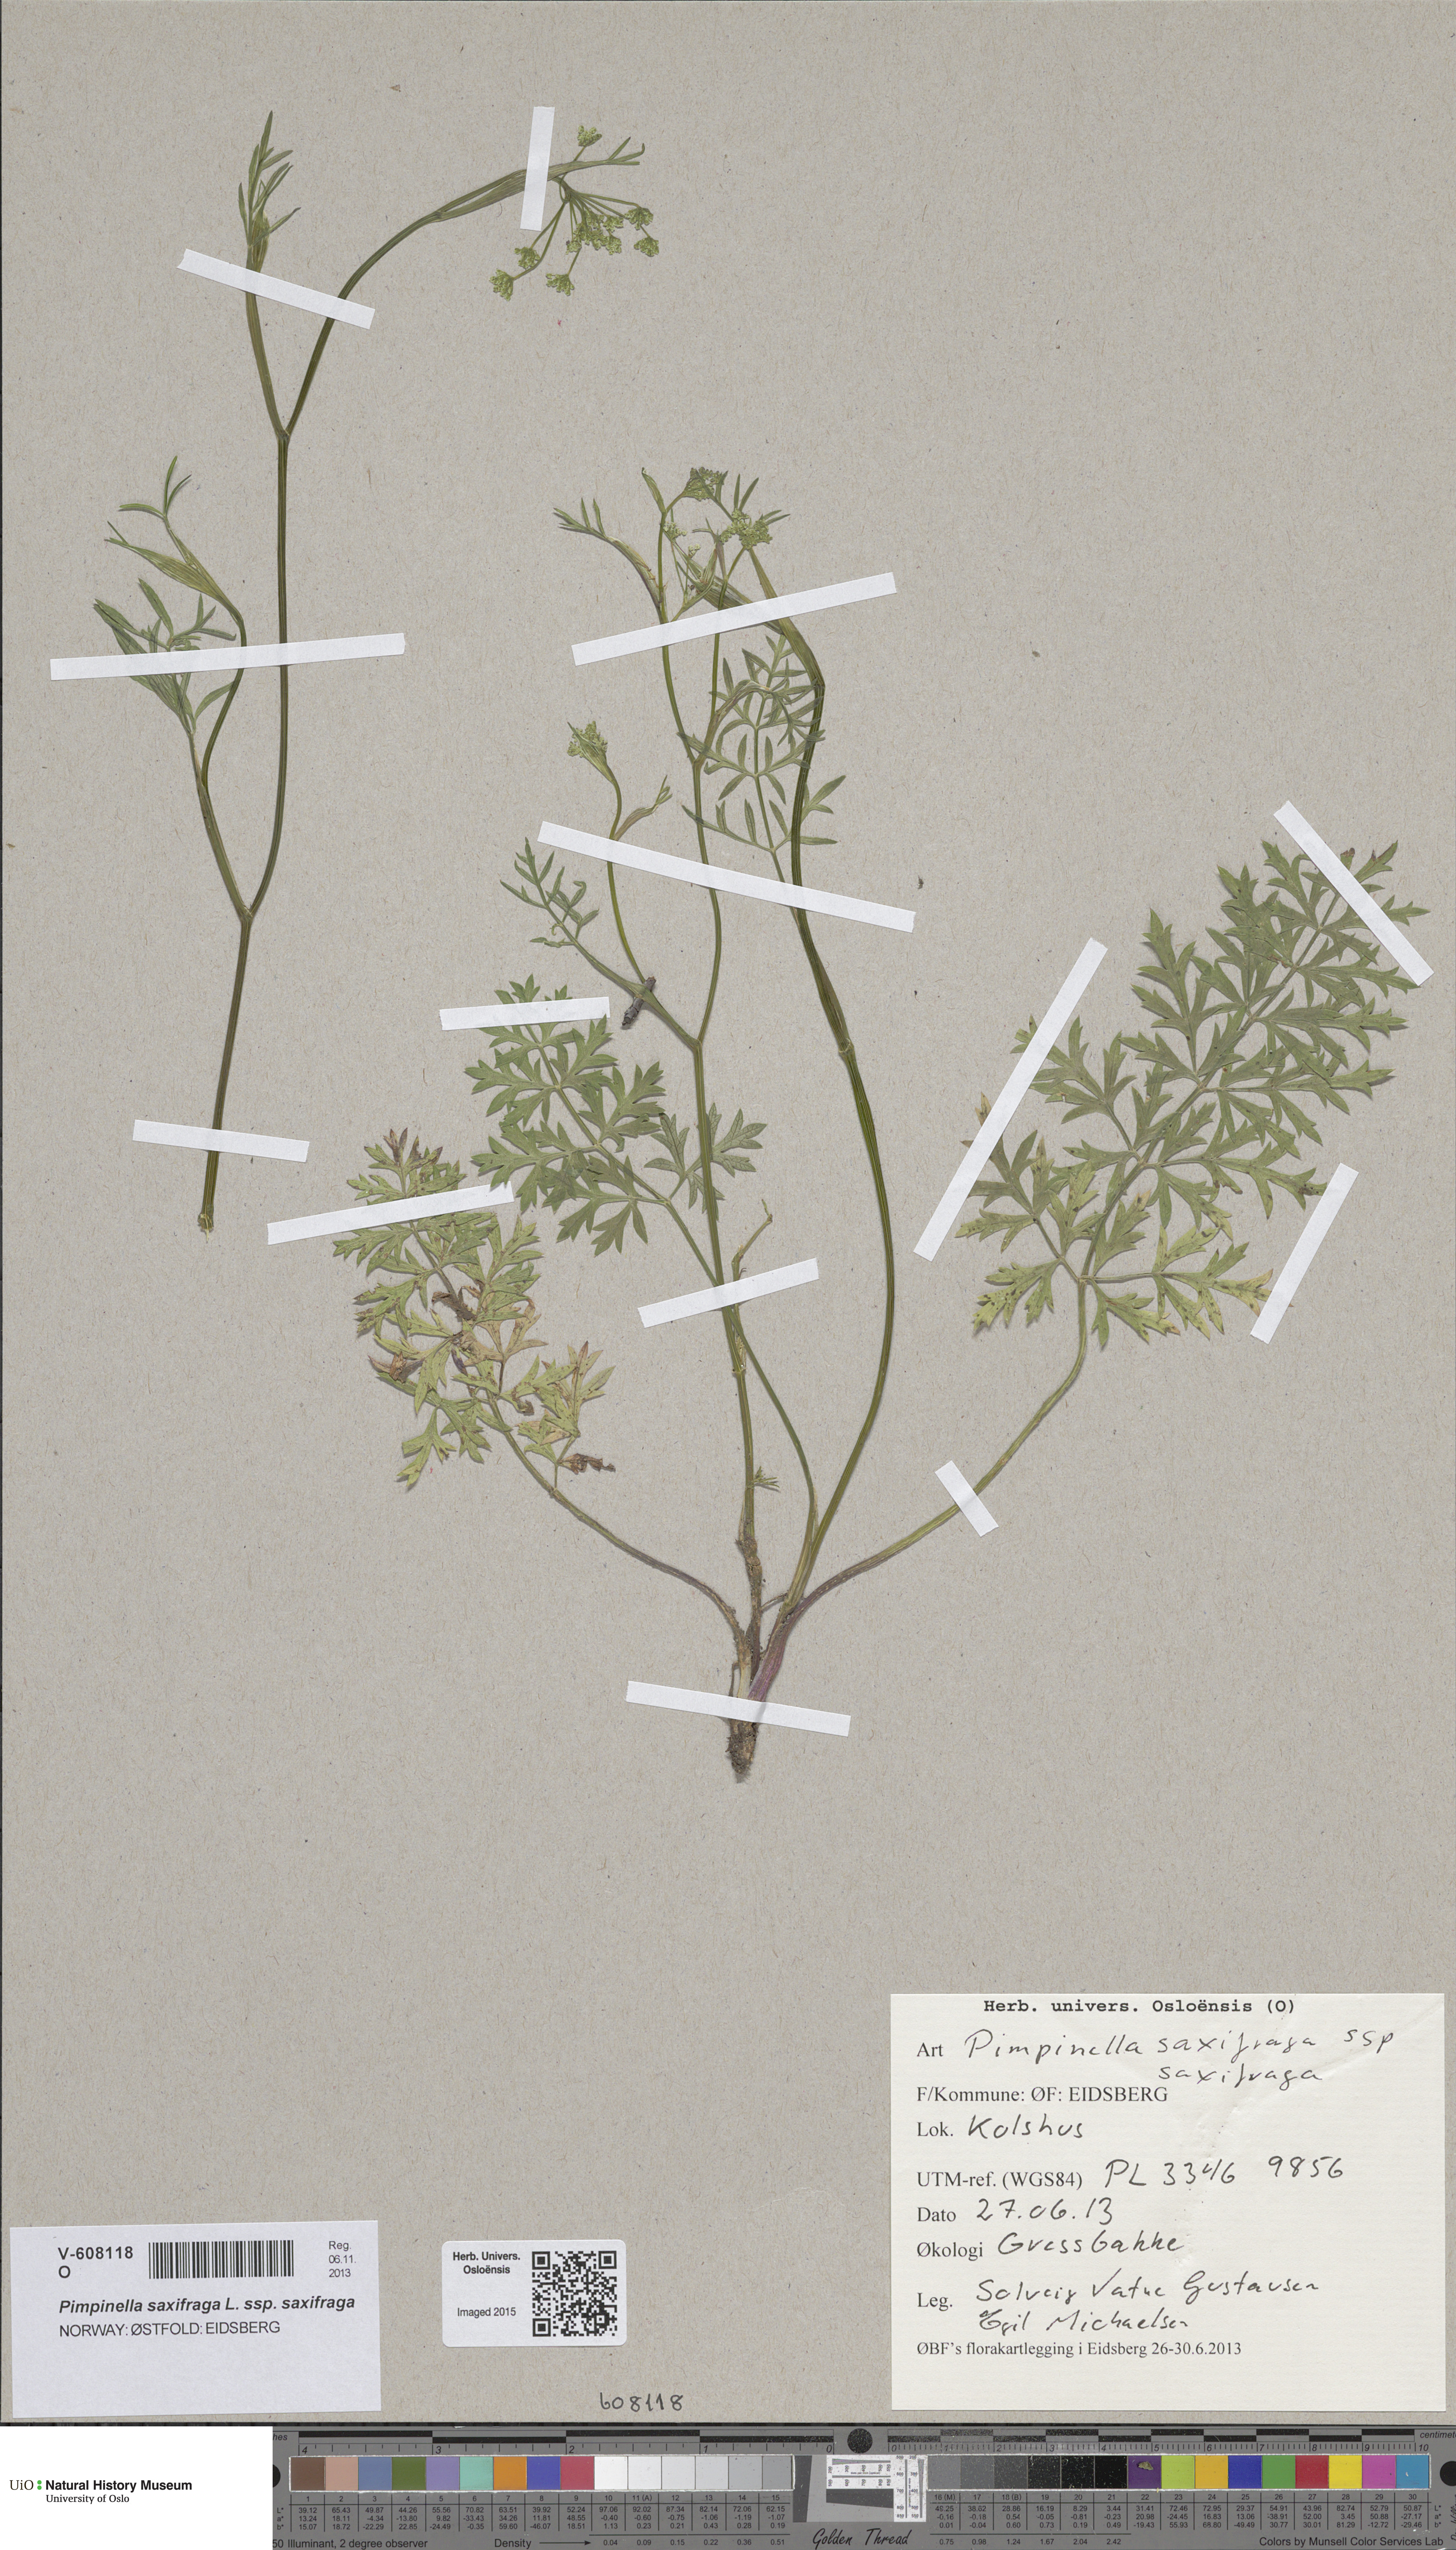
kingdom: Plantae
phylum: Tracheophyta
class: Magnoliopsida
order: Apiales
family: Apiaceae
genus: Pimpinella
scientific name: Pimpinella saxifraga
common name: Burnet-saxifrage
